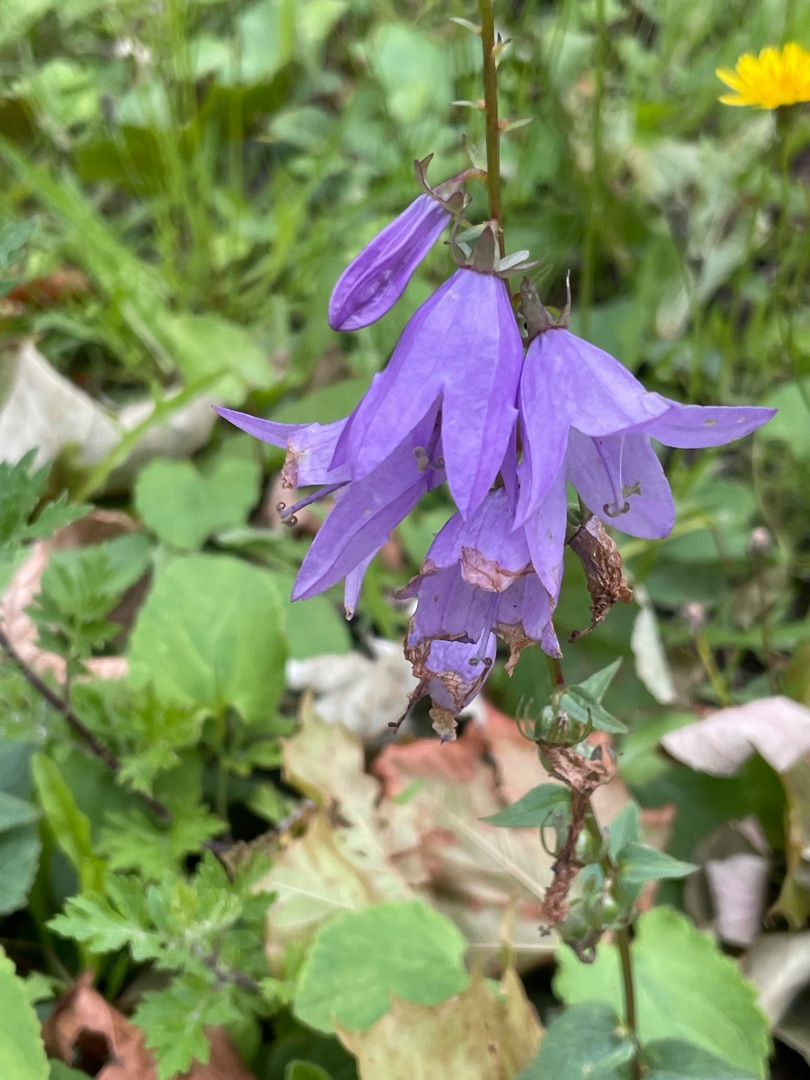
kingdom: Plantae
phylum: Tracheophyta
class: Magnoliopsida
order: Asterales
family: Campanulaceae
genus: Campanula
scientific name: Campanula rapunculoides
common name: Ensidig klokke
